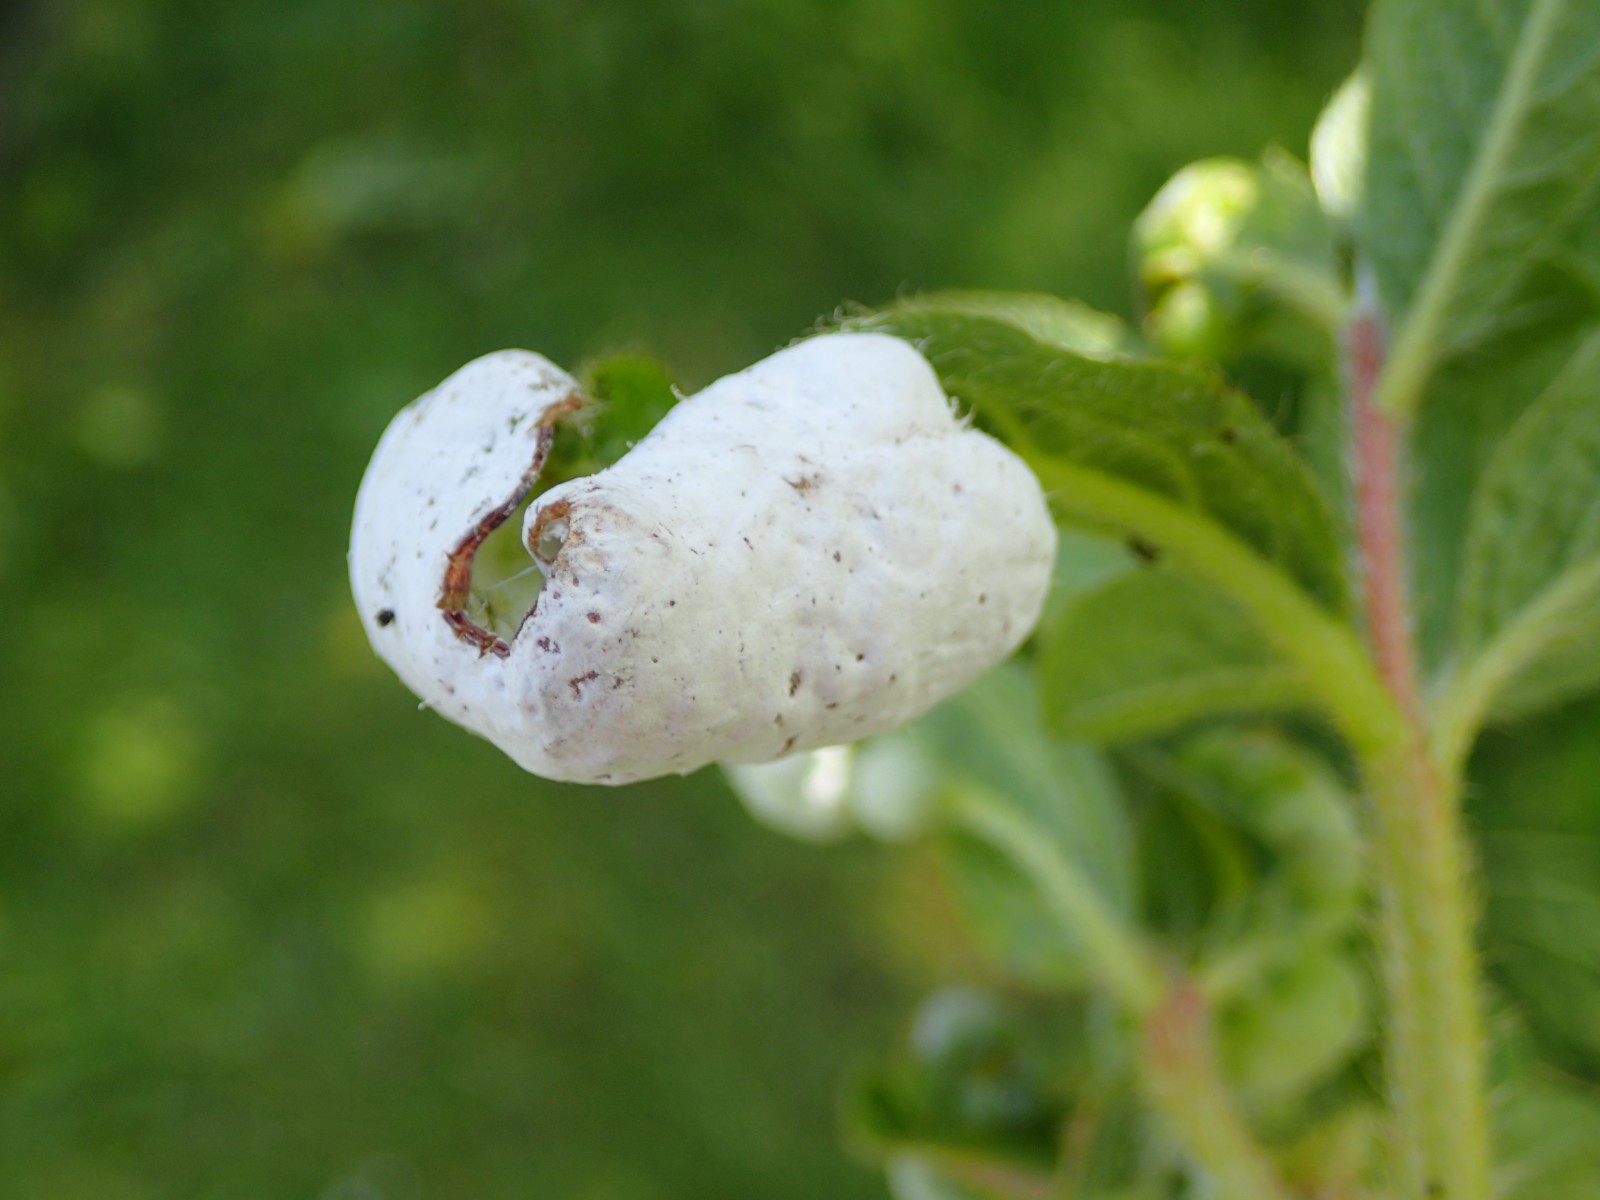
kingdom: Fungi
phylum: Basidiomycota
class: Exobasidiomycetes
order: Exobasidiales
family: Exobasidiaceae
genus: Exobasidium
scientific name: Exobasidium japonicum
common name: Azalea gall
